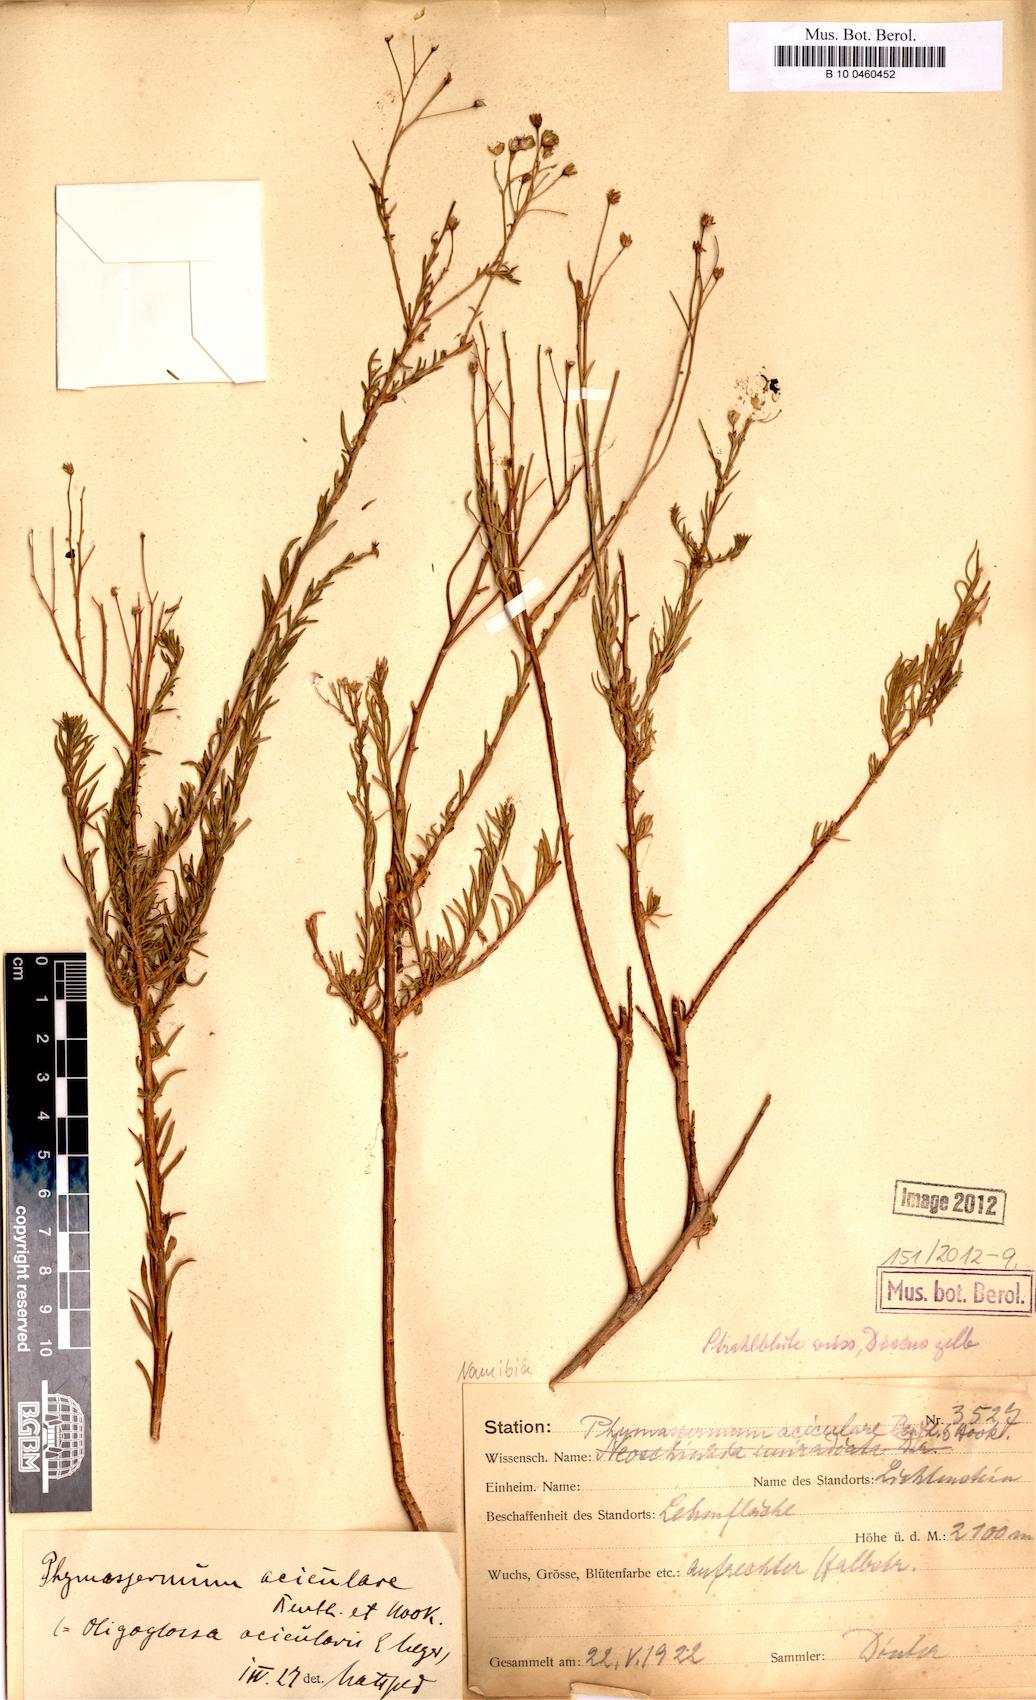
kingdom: Plantae
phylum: Tracheophyta
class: Magnoliopsida
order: Asterales
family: Asteraceae
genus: Phymaspermum
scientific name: Phymaspermum aciculare
